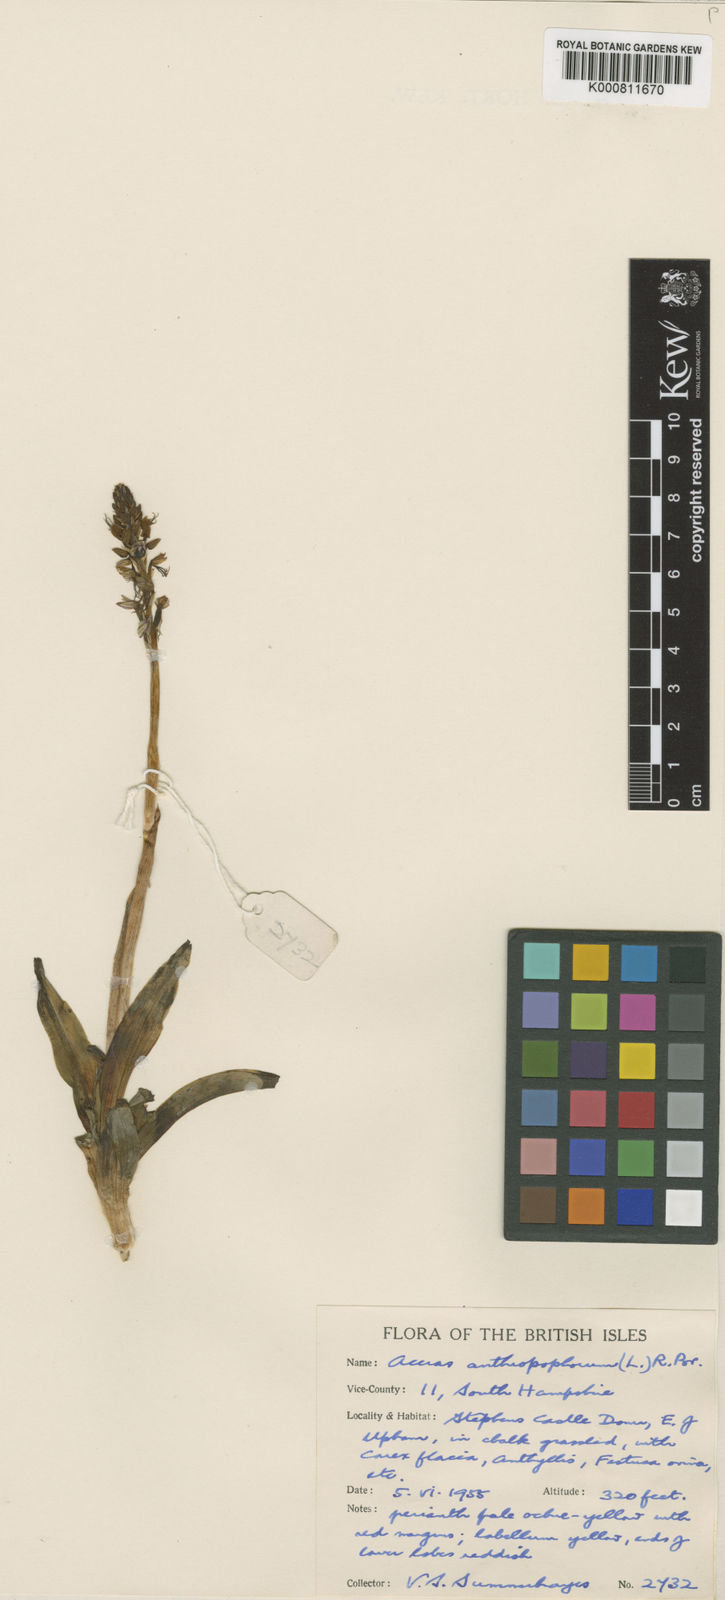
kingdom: Plantae
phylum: Tracheophyta
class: Liliopsida
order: Asparagales
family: Orchidaceae
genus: Orchis
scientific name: Orchis
